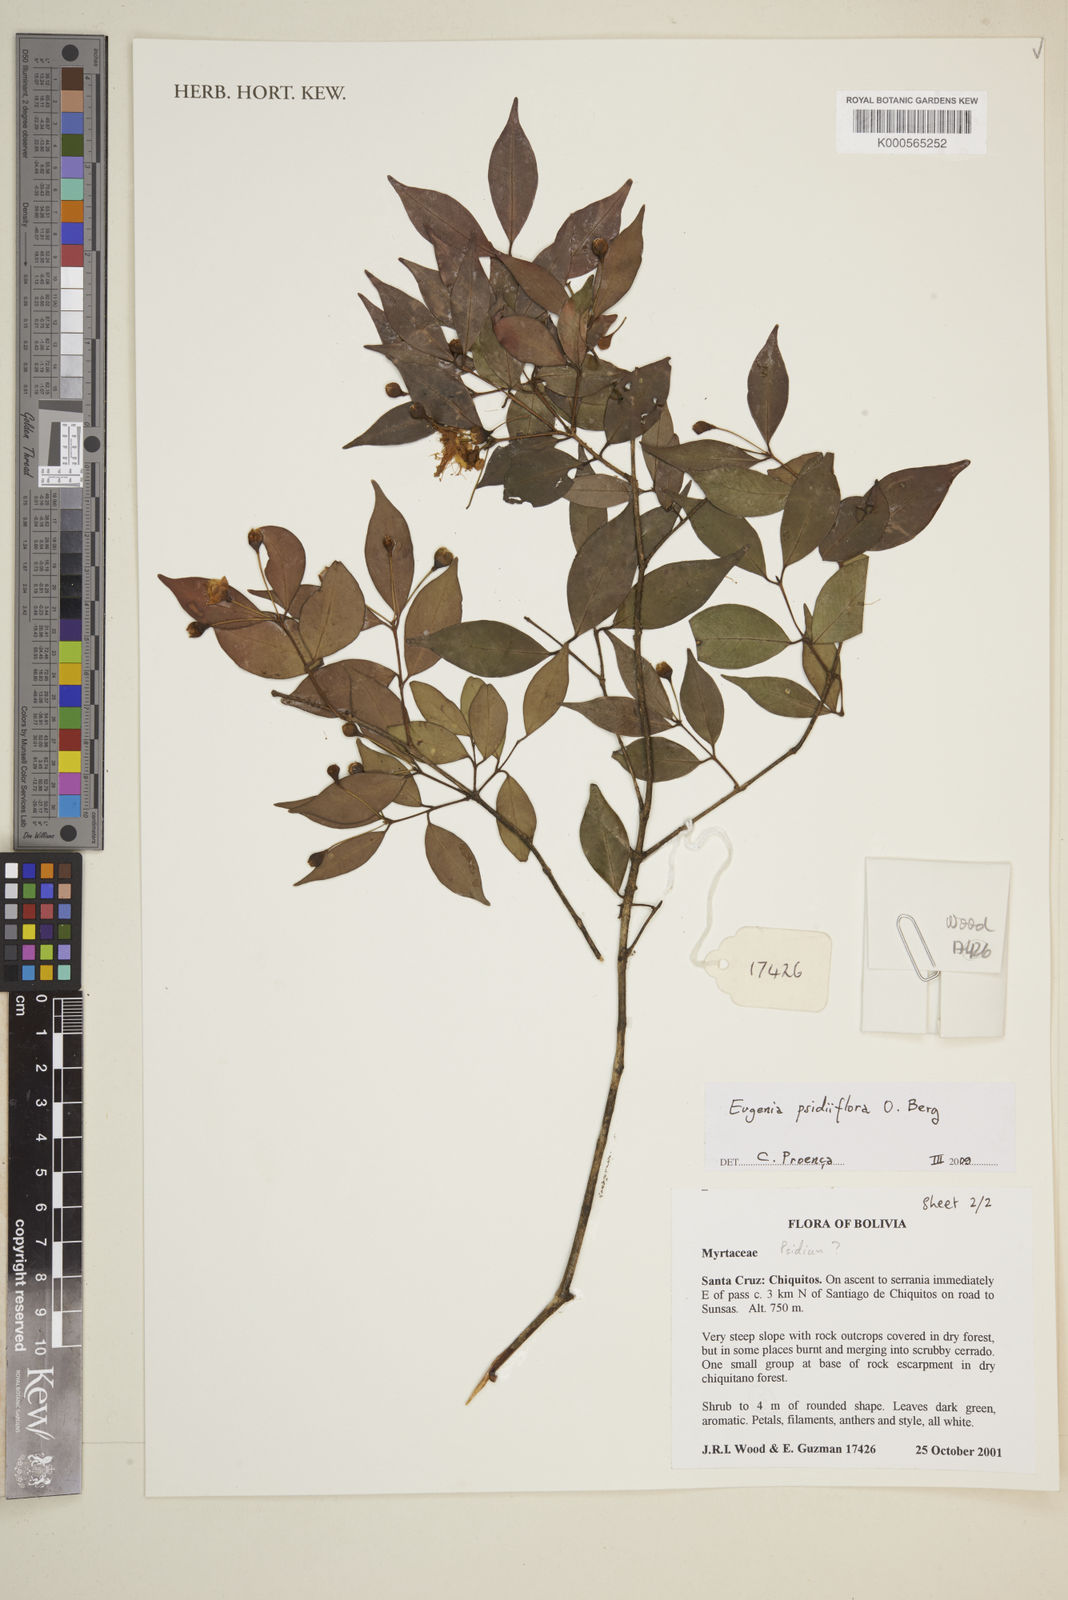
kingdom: Plantae
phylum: Tracheophyta
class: Magnoliopsida
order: Myrtales
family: Myrtaceae
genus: Eugenia
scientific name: Eugenia psidiiflora
